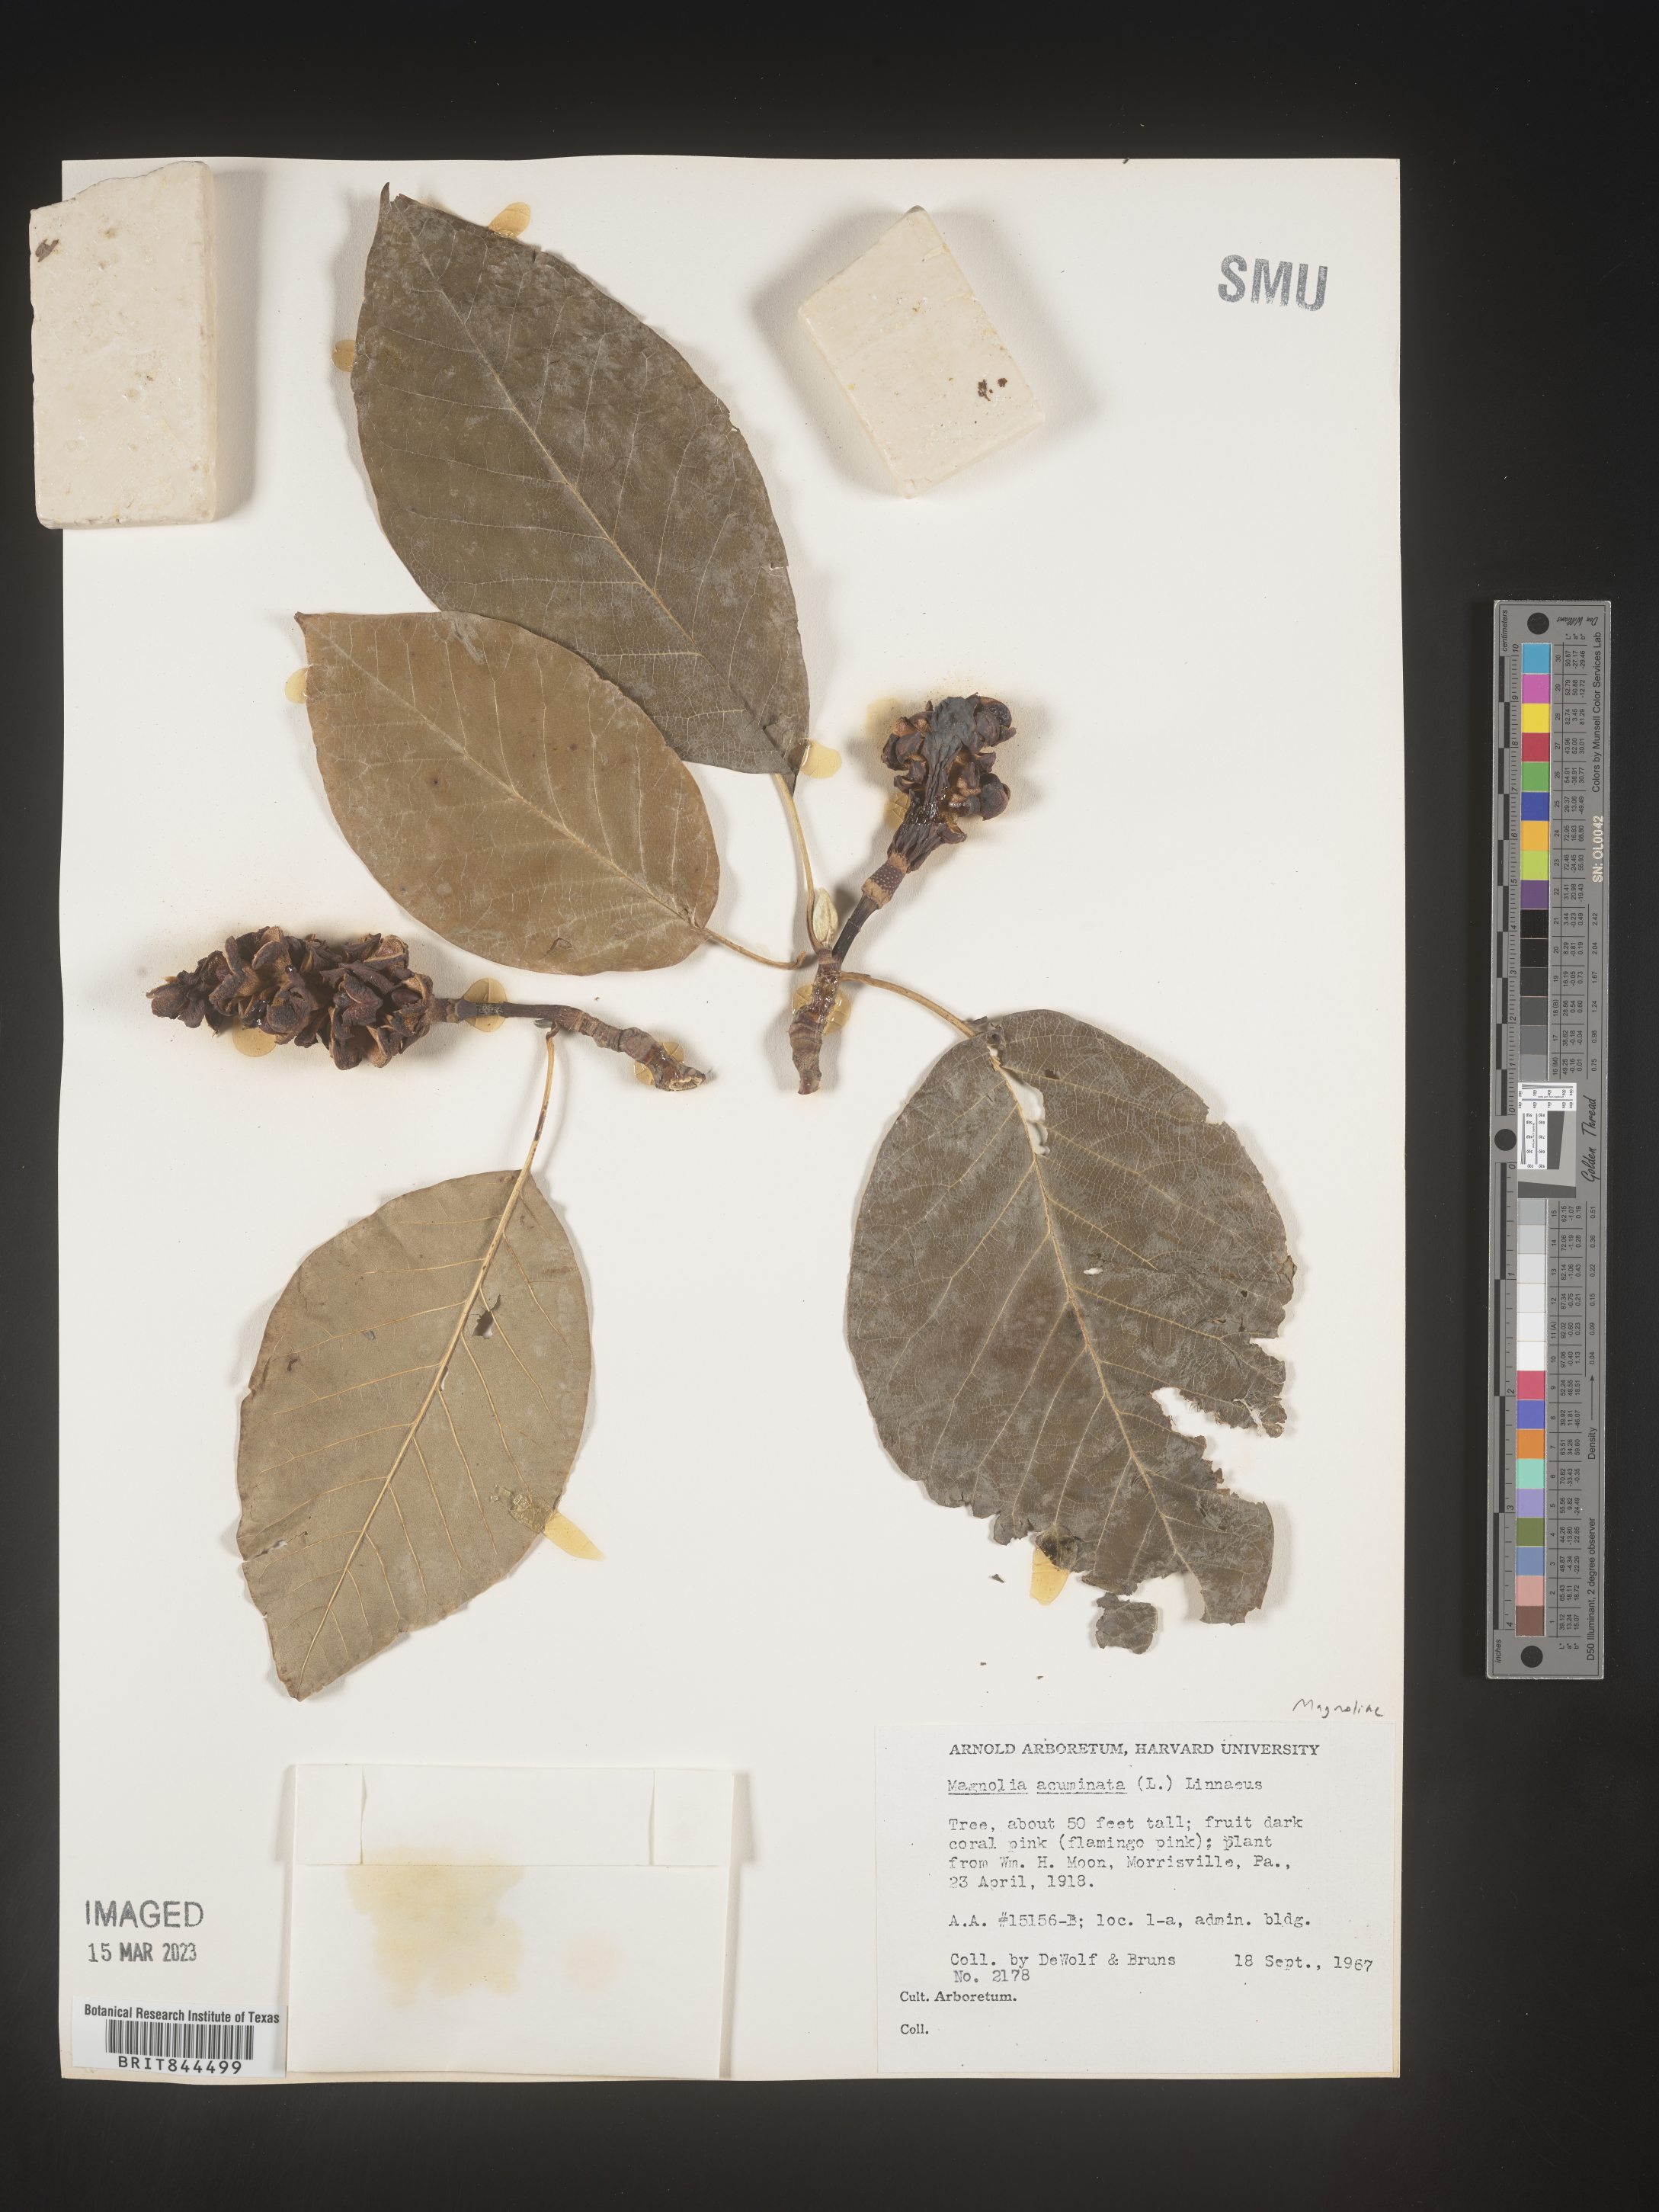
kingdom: Plantae
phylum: Tracheophyta
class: Magnoliopsida
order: Magnoliales
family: Magnoliaceae
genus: Magnolia
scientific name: Magnolia acuminata
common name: Cucumber magnolia
